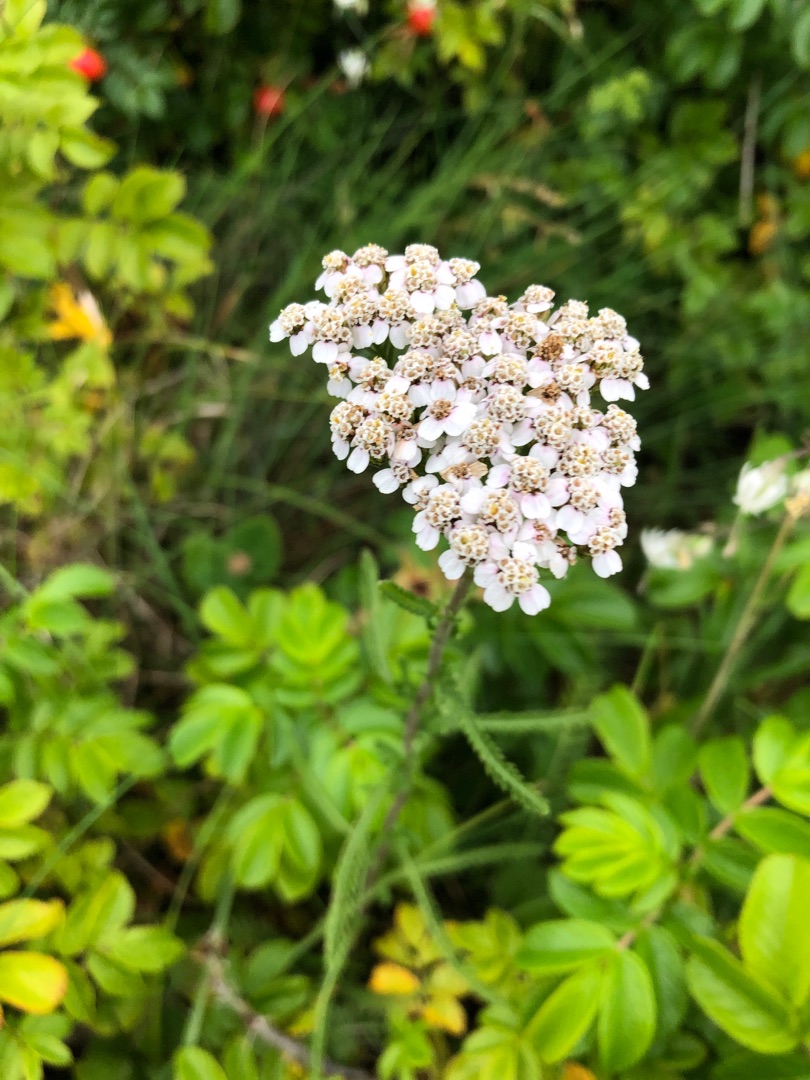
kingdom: Plantae
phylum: Tracheophyta
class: Magnoliopsida
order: Asterales
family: Asteraceae
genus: Achillea
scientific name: Achillea millefolium
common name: Almindelig røllike
